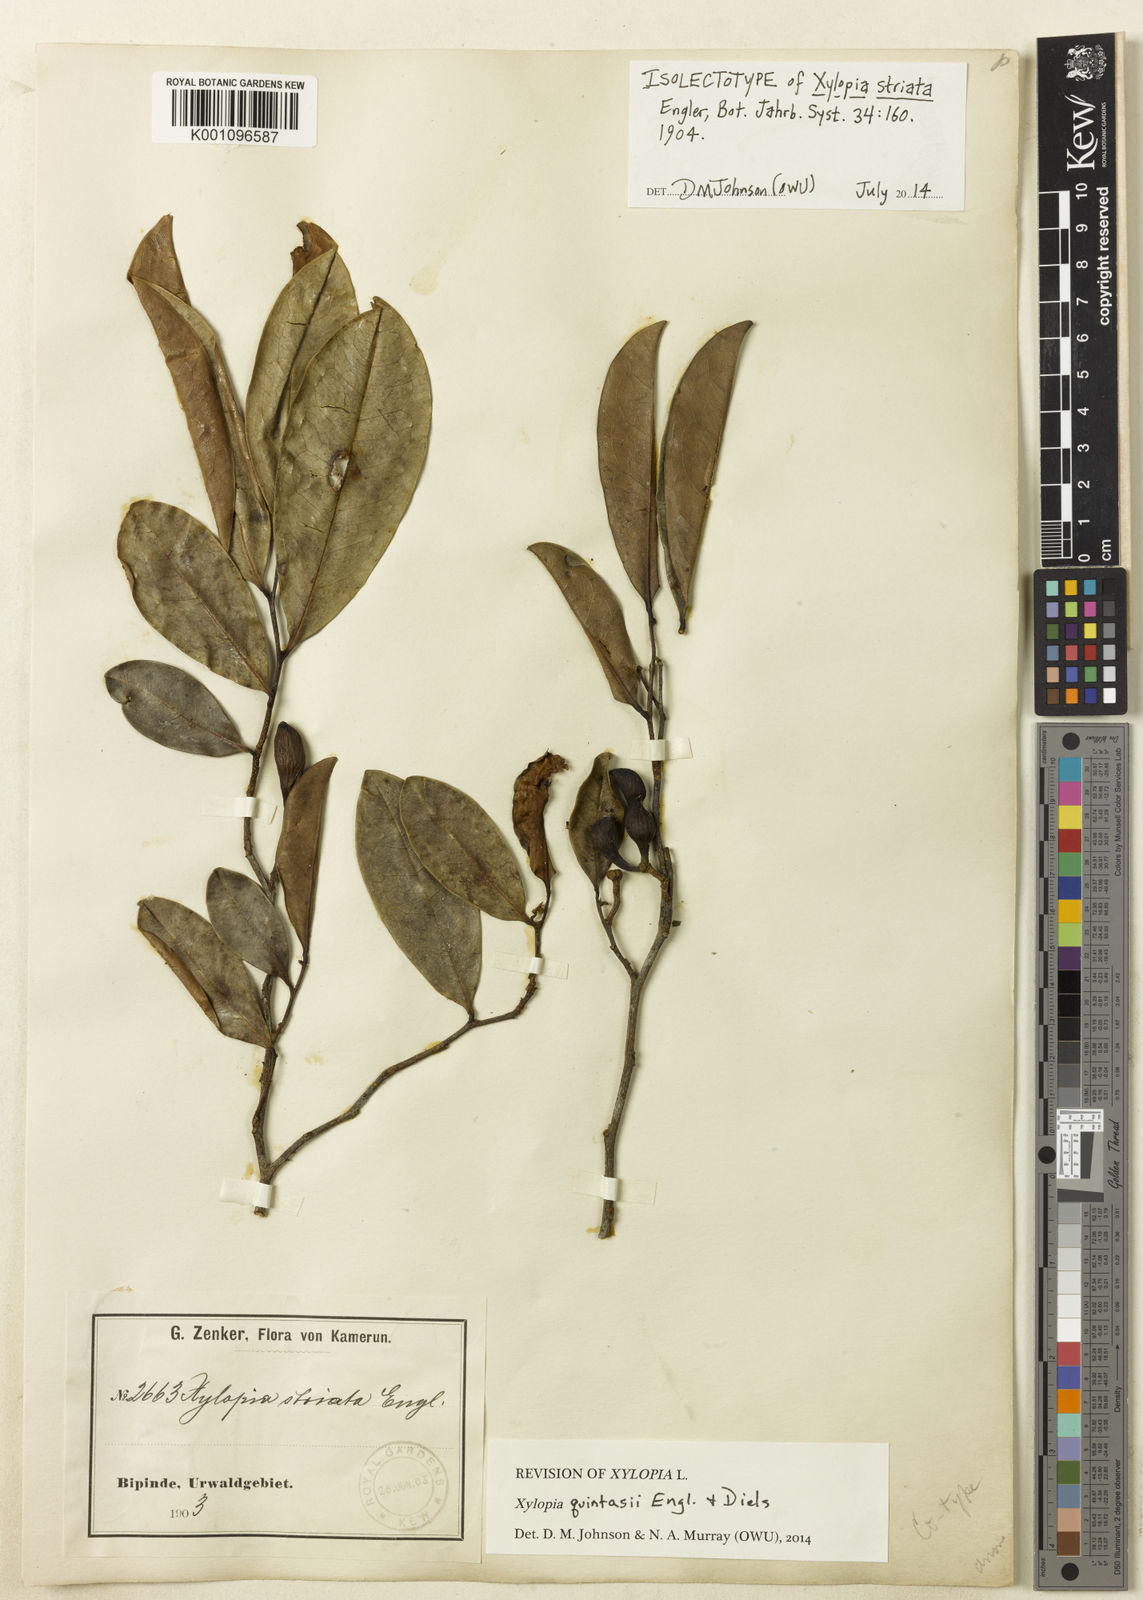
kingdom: Plantae
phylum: Tracheophyta
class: Magnoliopsida
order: Magnoliales
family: Annonaceae
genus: Xylopia
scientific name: Xylopia quintasii
